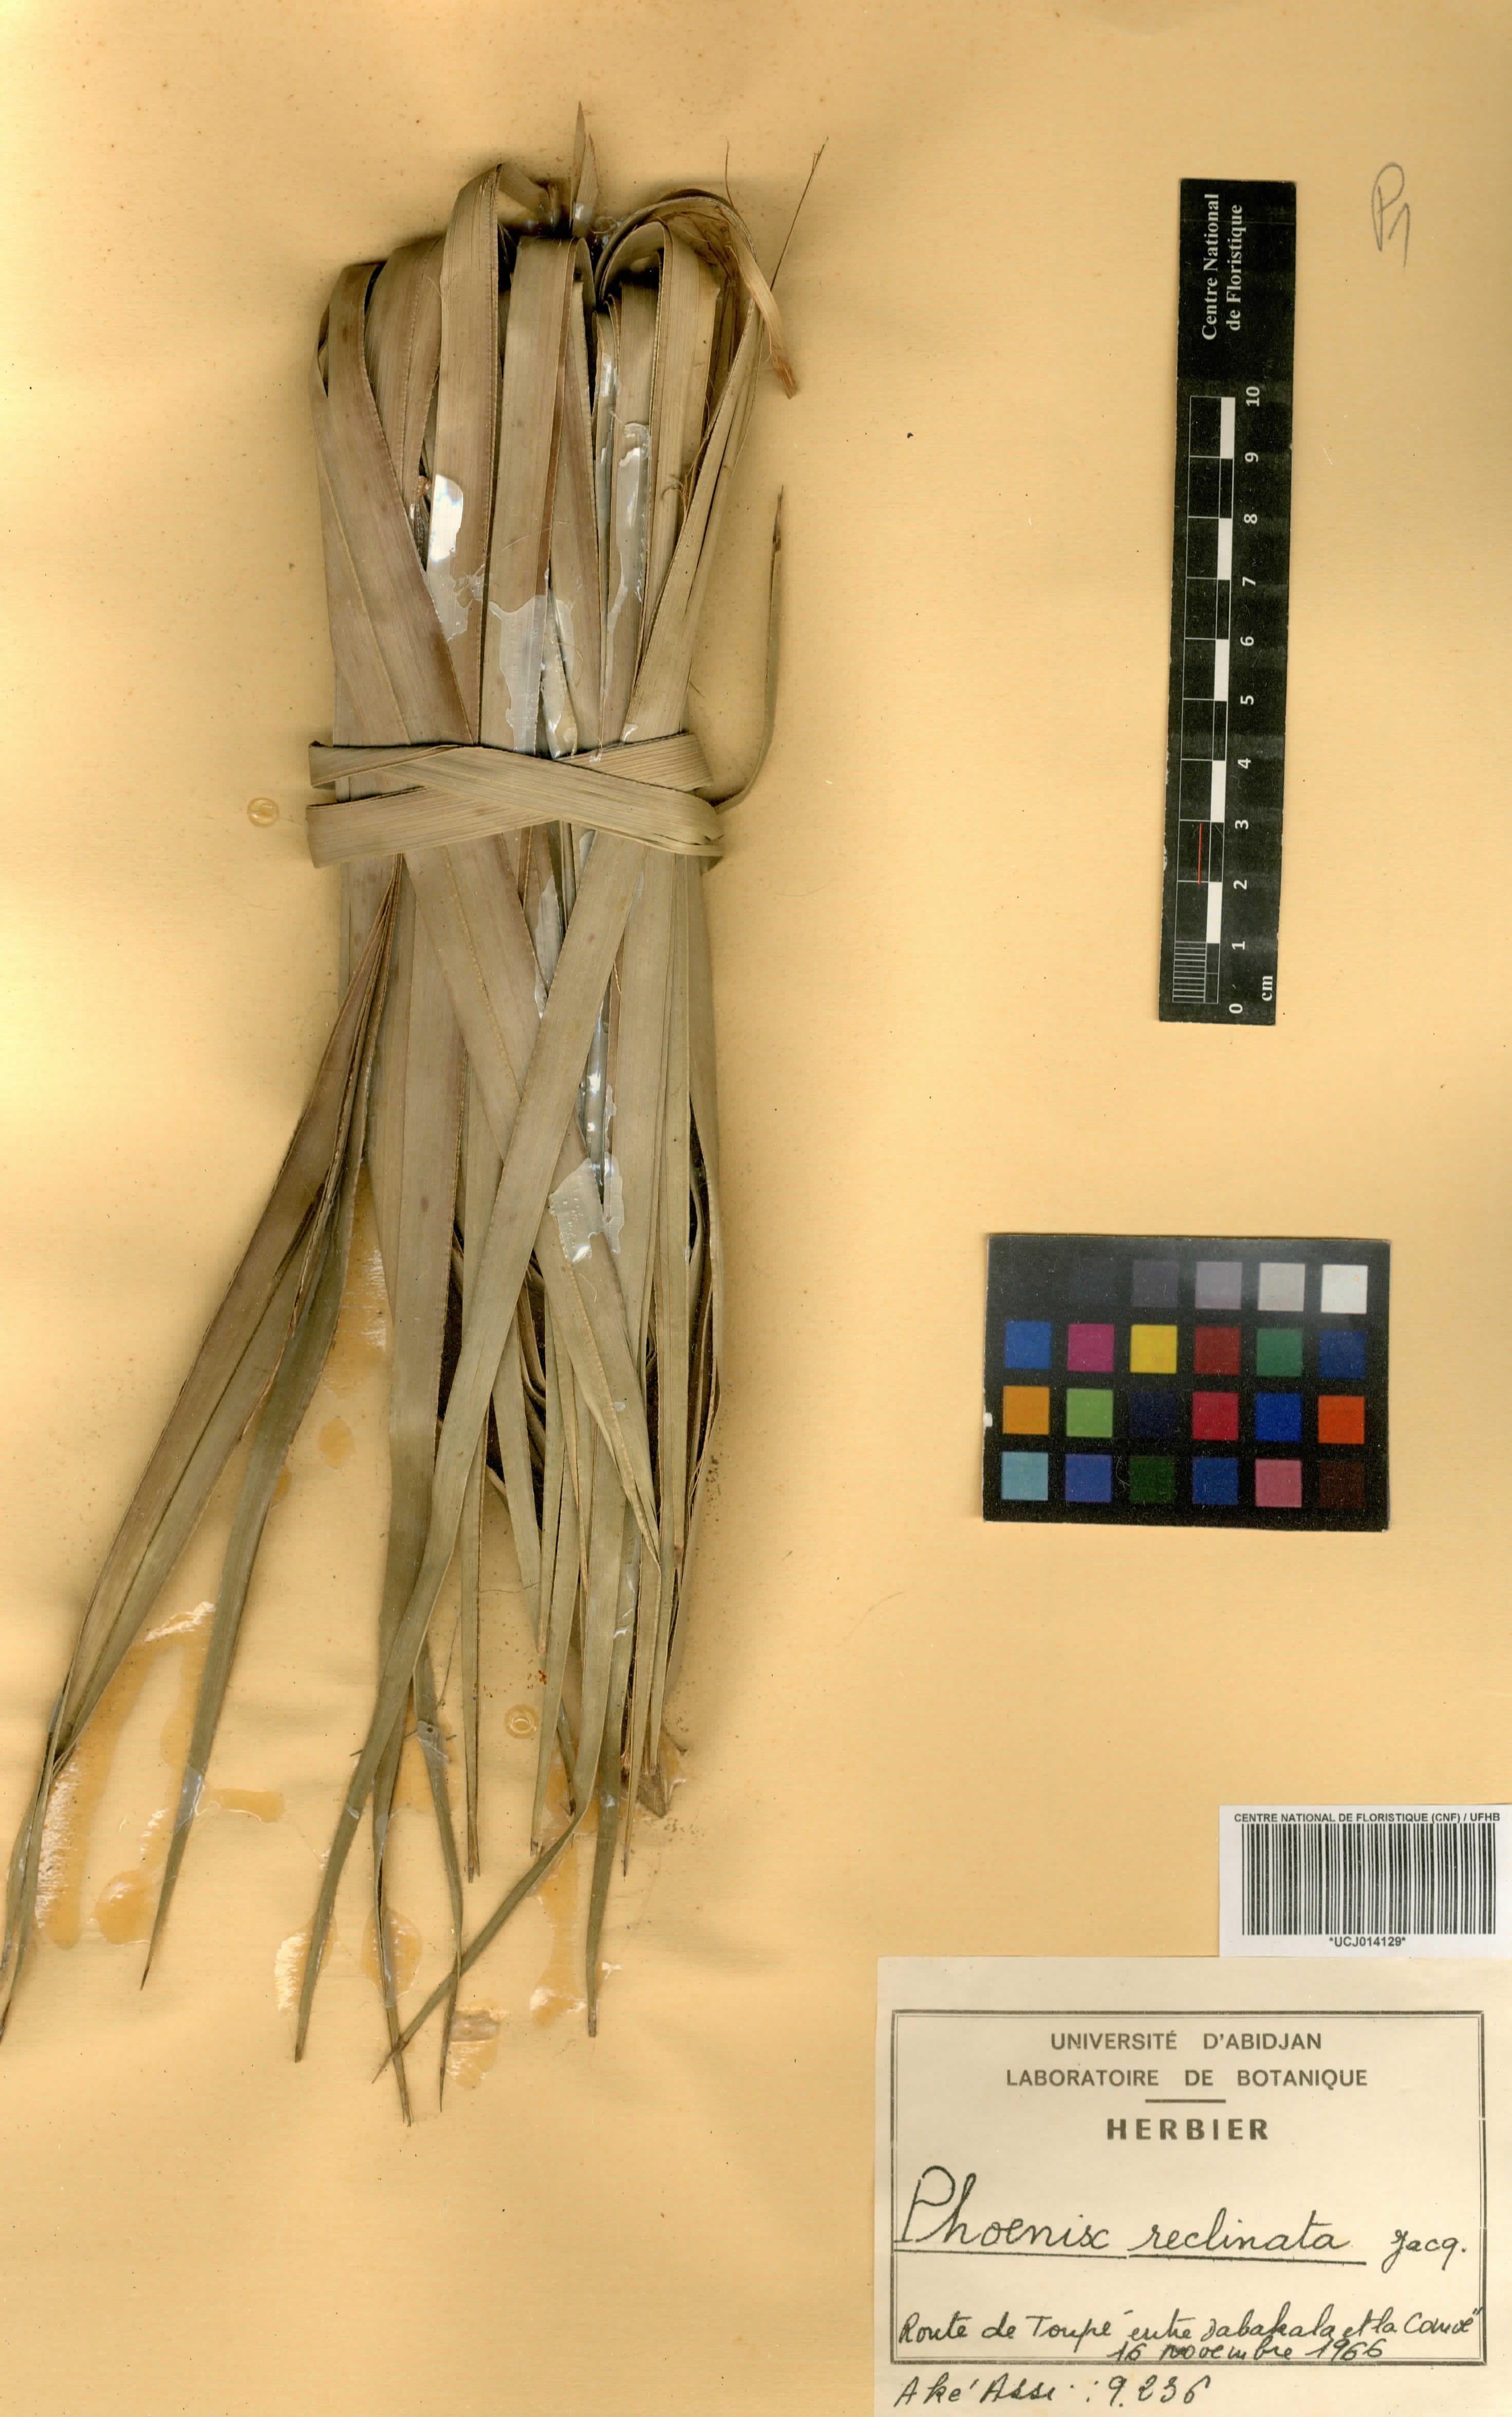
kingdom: Plantae
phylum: Tracheophyta
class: Liliopsida
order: Arecales
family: Arecaceae
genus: Phoenix
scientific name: Phoenix reclinata
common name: Senegal date palm
